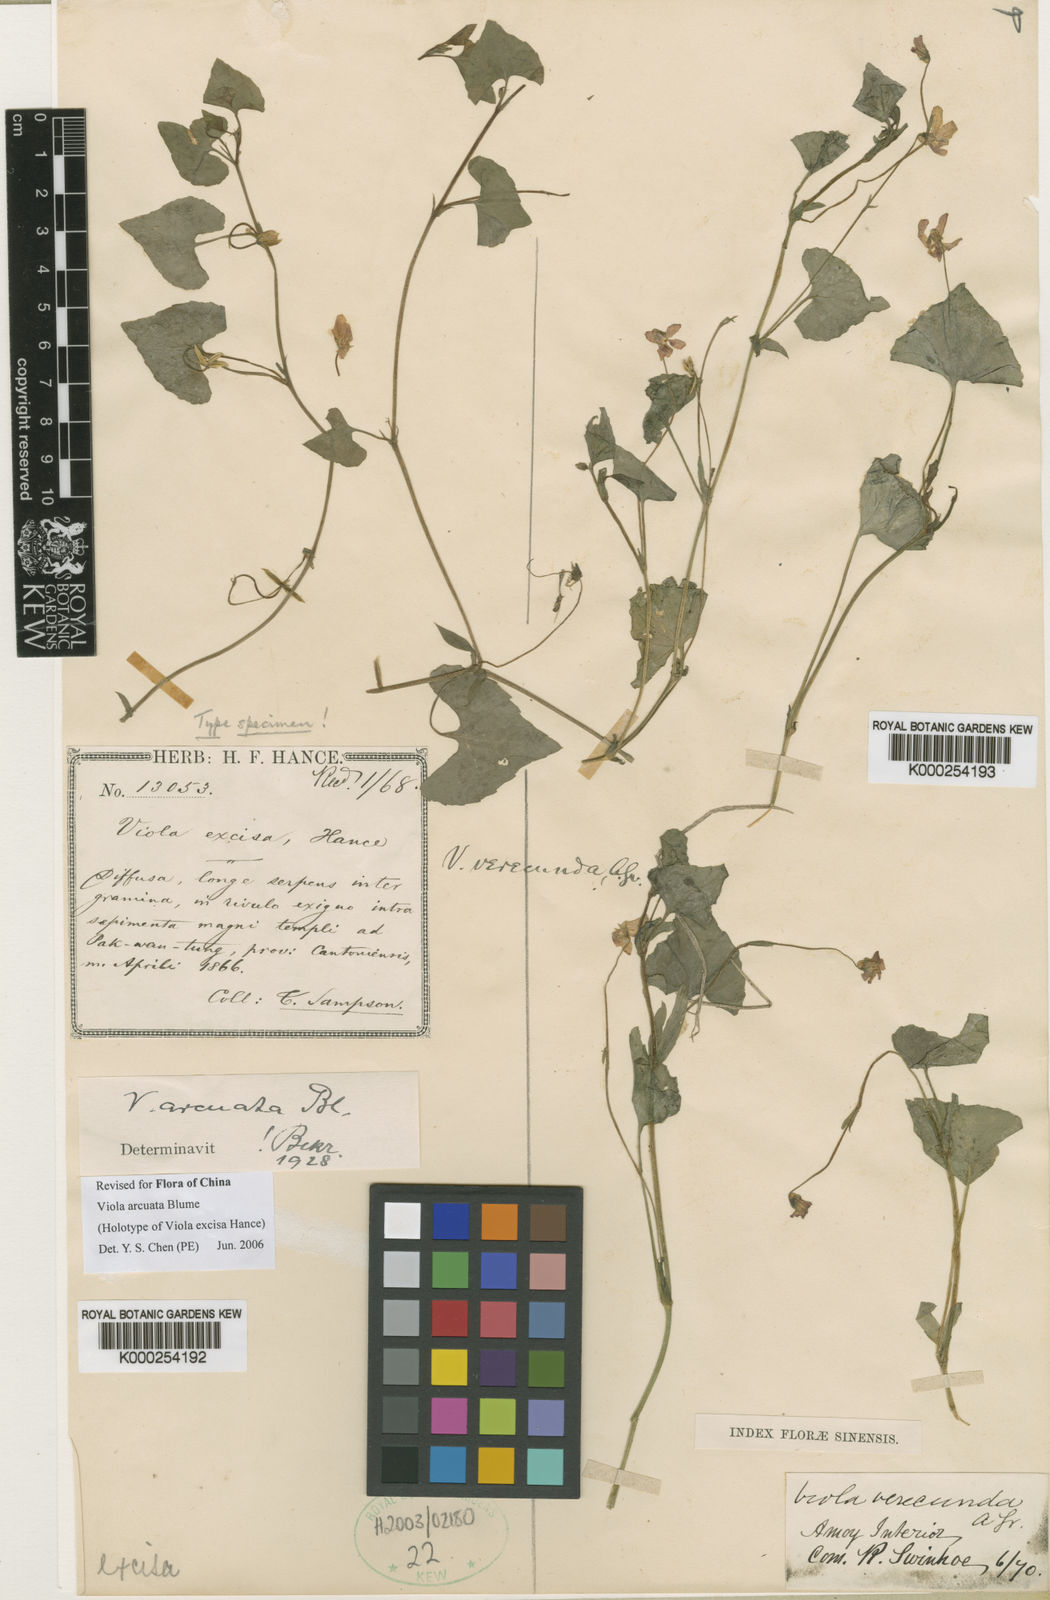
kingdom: Plantae
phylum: Tracheophyta
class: Magnoliopsida
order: Malpighiales
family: Violaceae
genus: Viola
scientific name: Viola hamiltoniana
